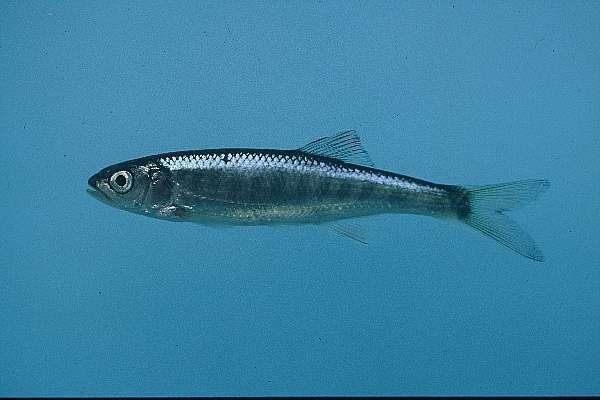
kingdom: Animalia
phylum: Chordata
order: Cypriniformes
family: Cyprinidae
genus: Opsaridium
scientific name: Opsaridium zambezense
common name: Barred minnow
